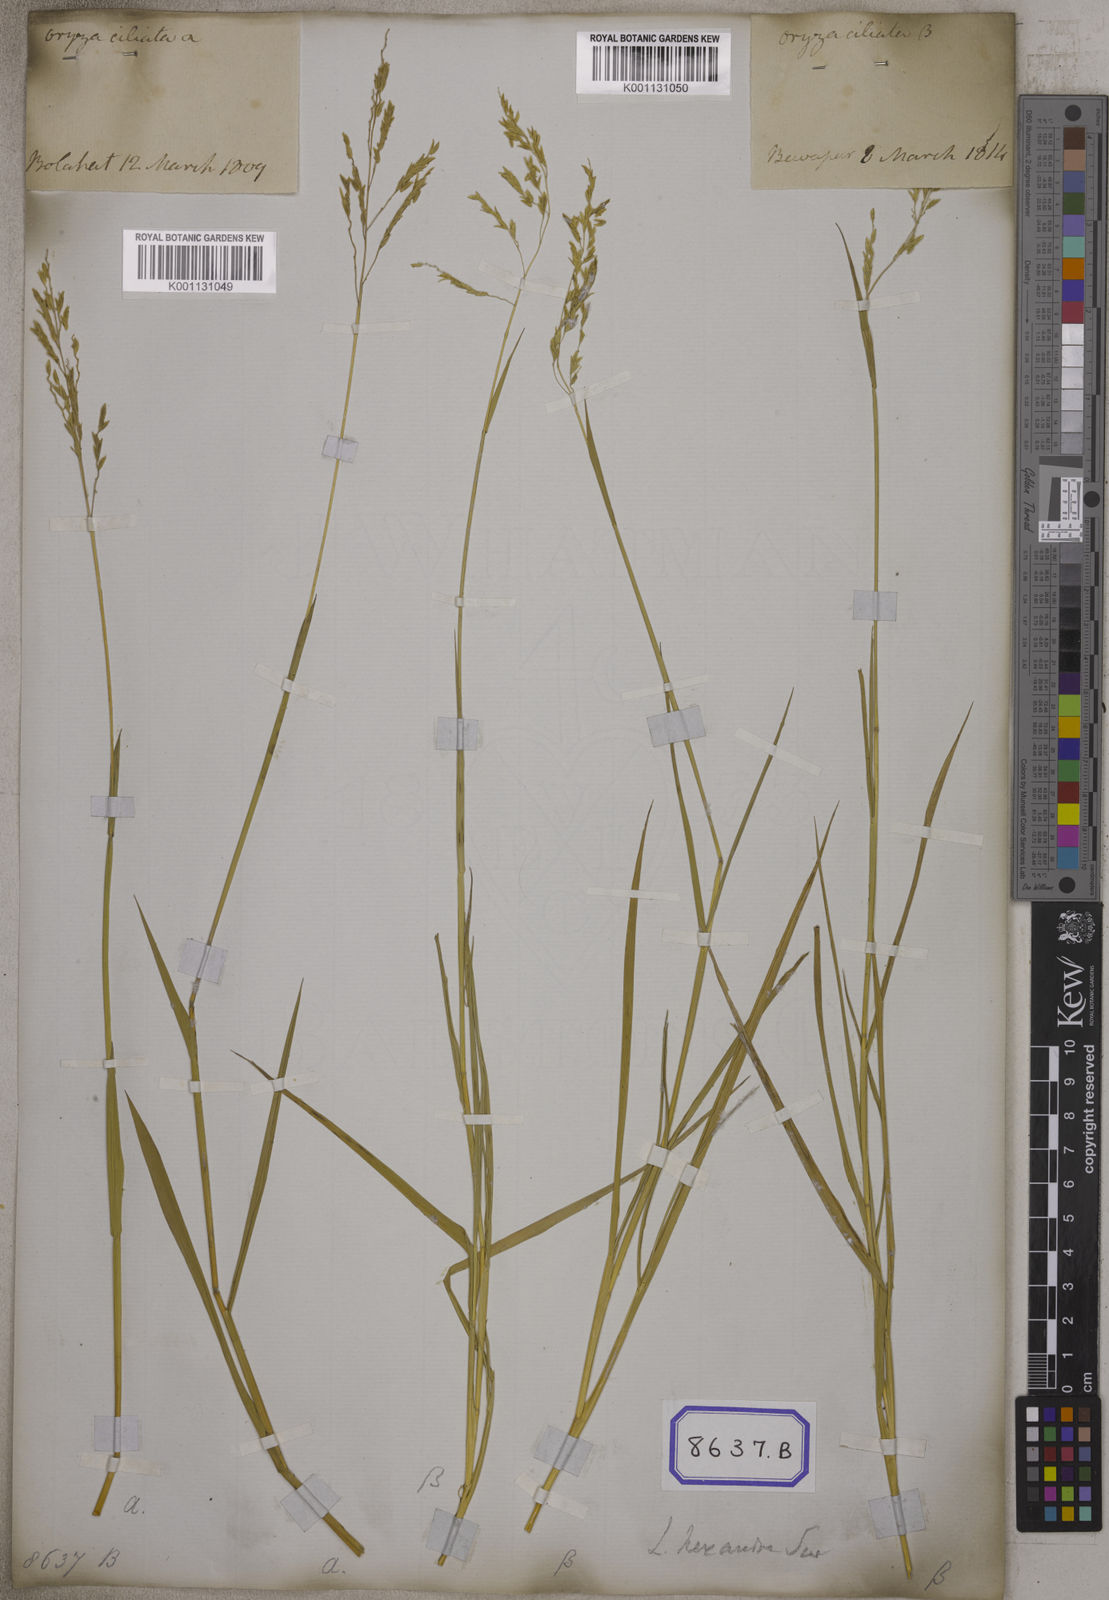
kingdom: Plantae
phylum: Tracheophyta
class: Liliopsida
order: Poales
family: Poaceae
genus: Leersia
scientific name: Leersia oryzoides
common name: Cut-grass
